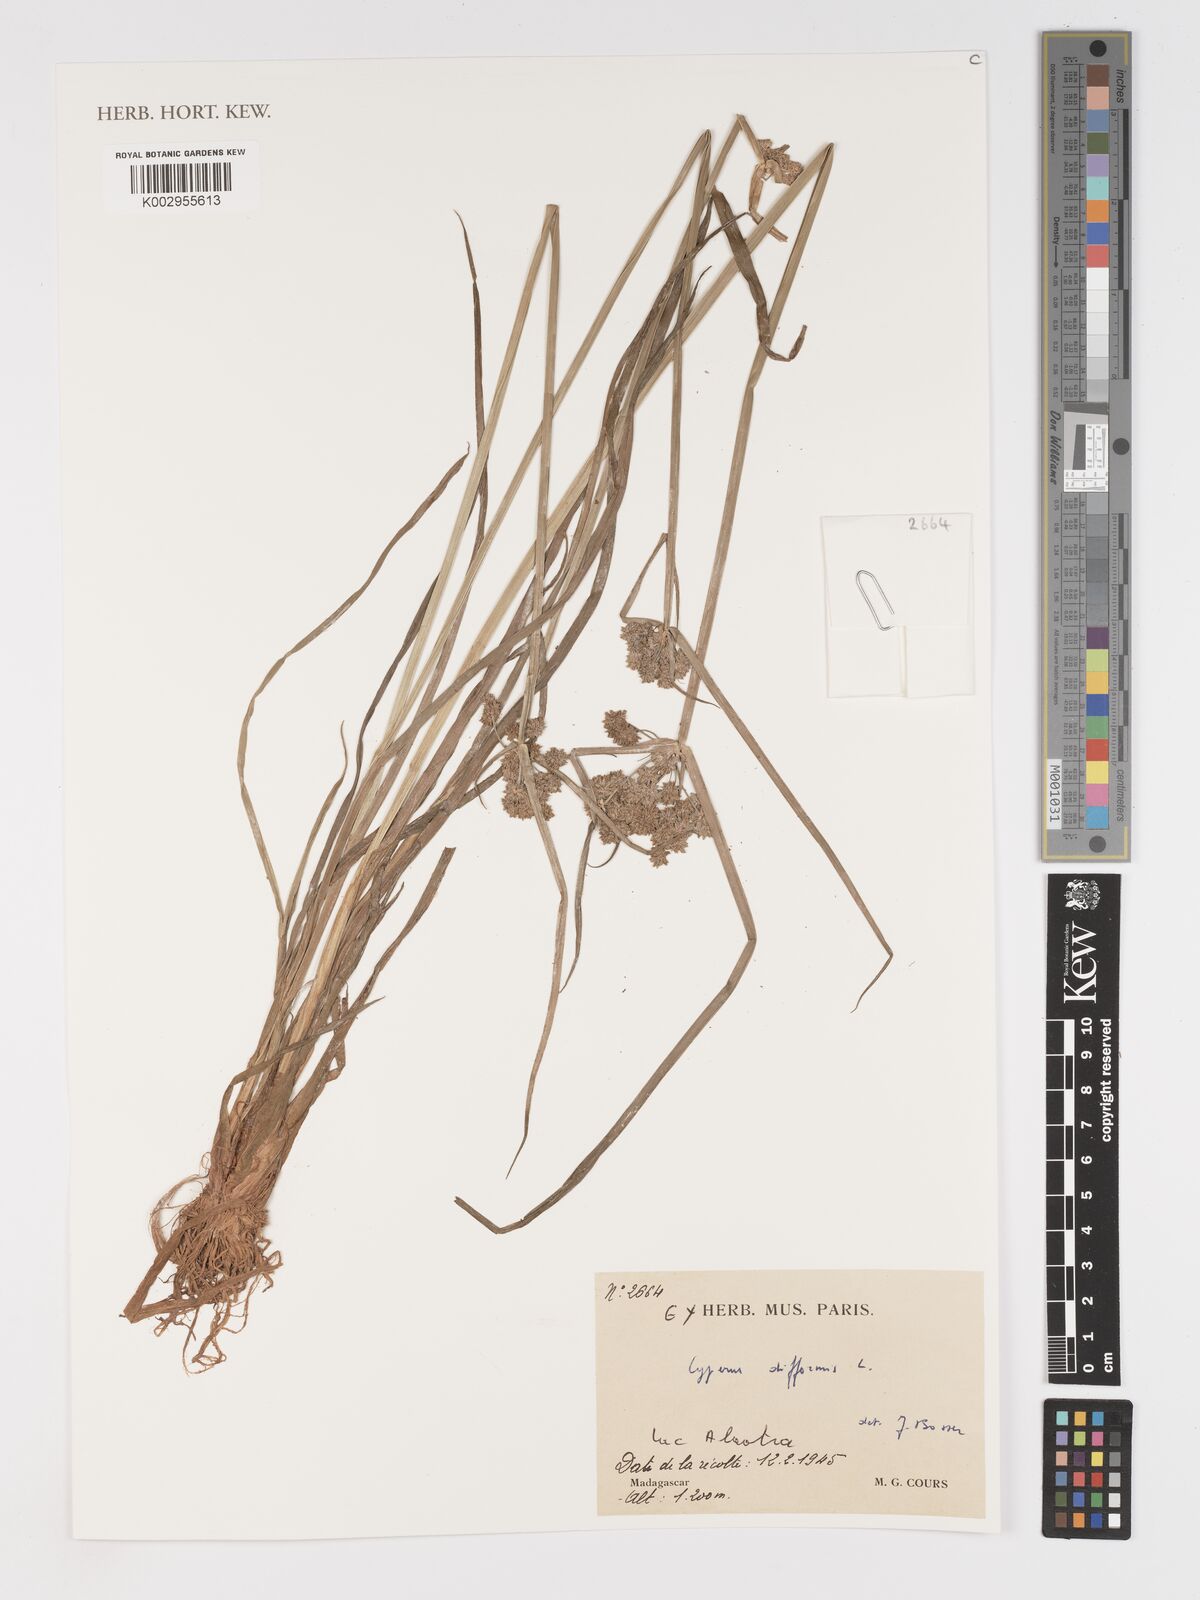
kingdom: Plantae
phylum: Tracheophyta
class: Liliopsida
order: Poales
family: Cyperaceae
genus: Cyperus
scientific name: Cyperus difformis
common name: Variable flatsedge
